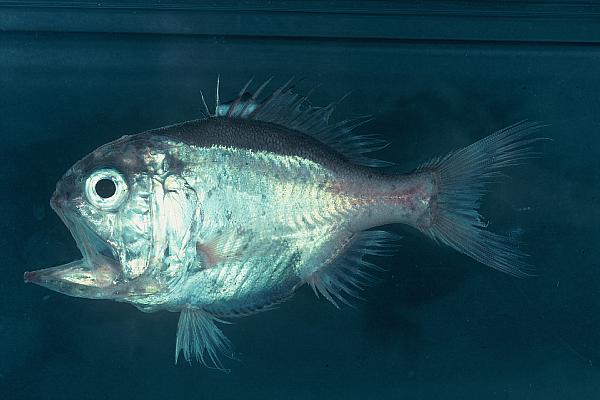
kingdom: Animalia
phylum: Chordata
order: Beryciformes
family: Trachichthyidae
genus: Hoplostethus
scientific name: Hoplostethus melanopterus
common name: Blackfin roughy
